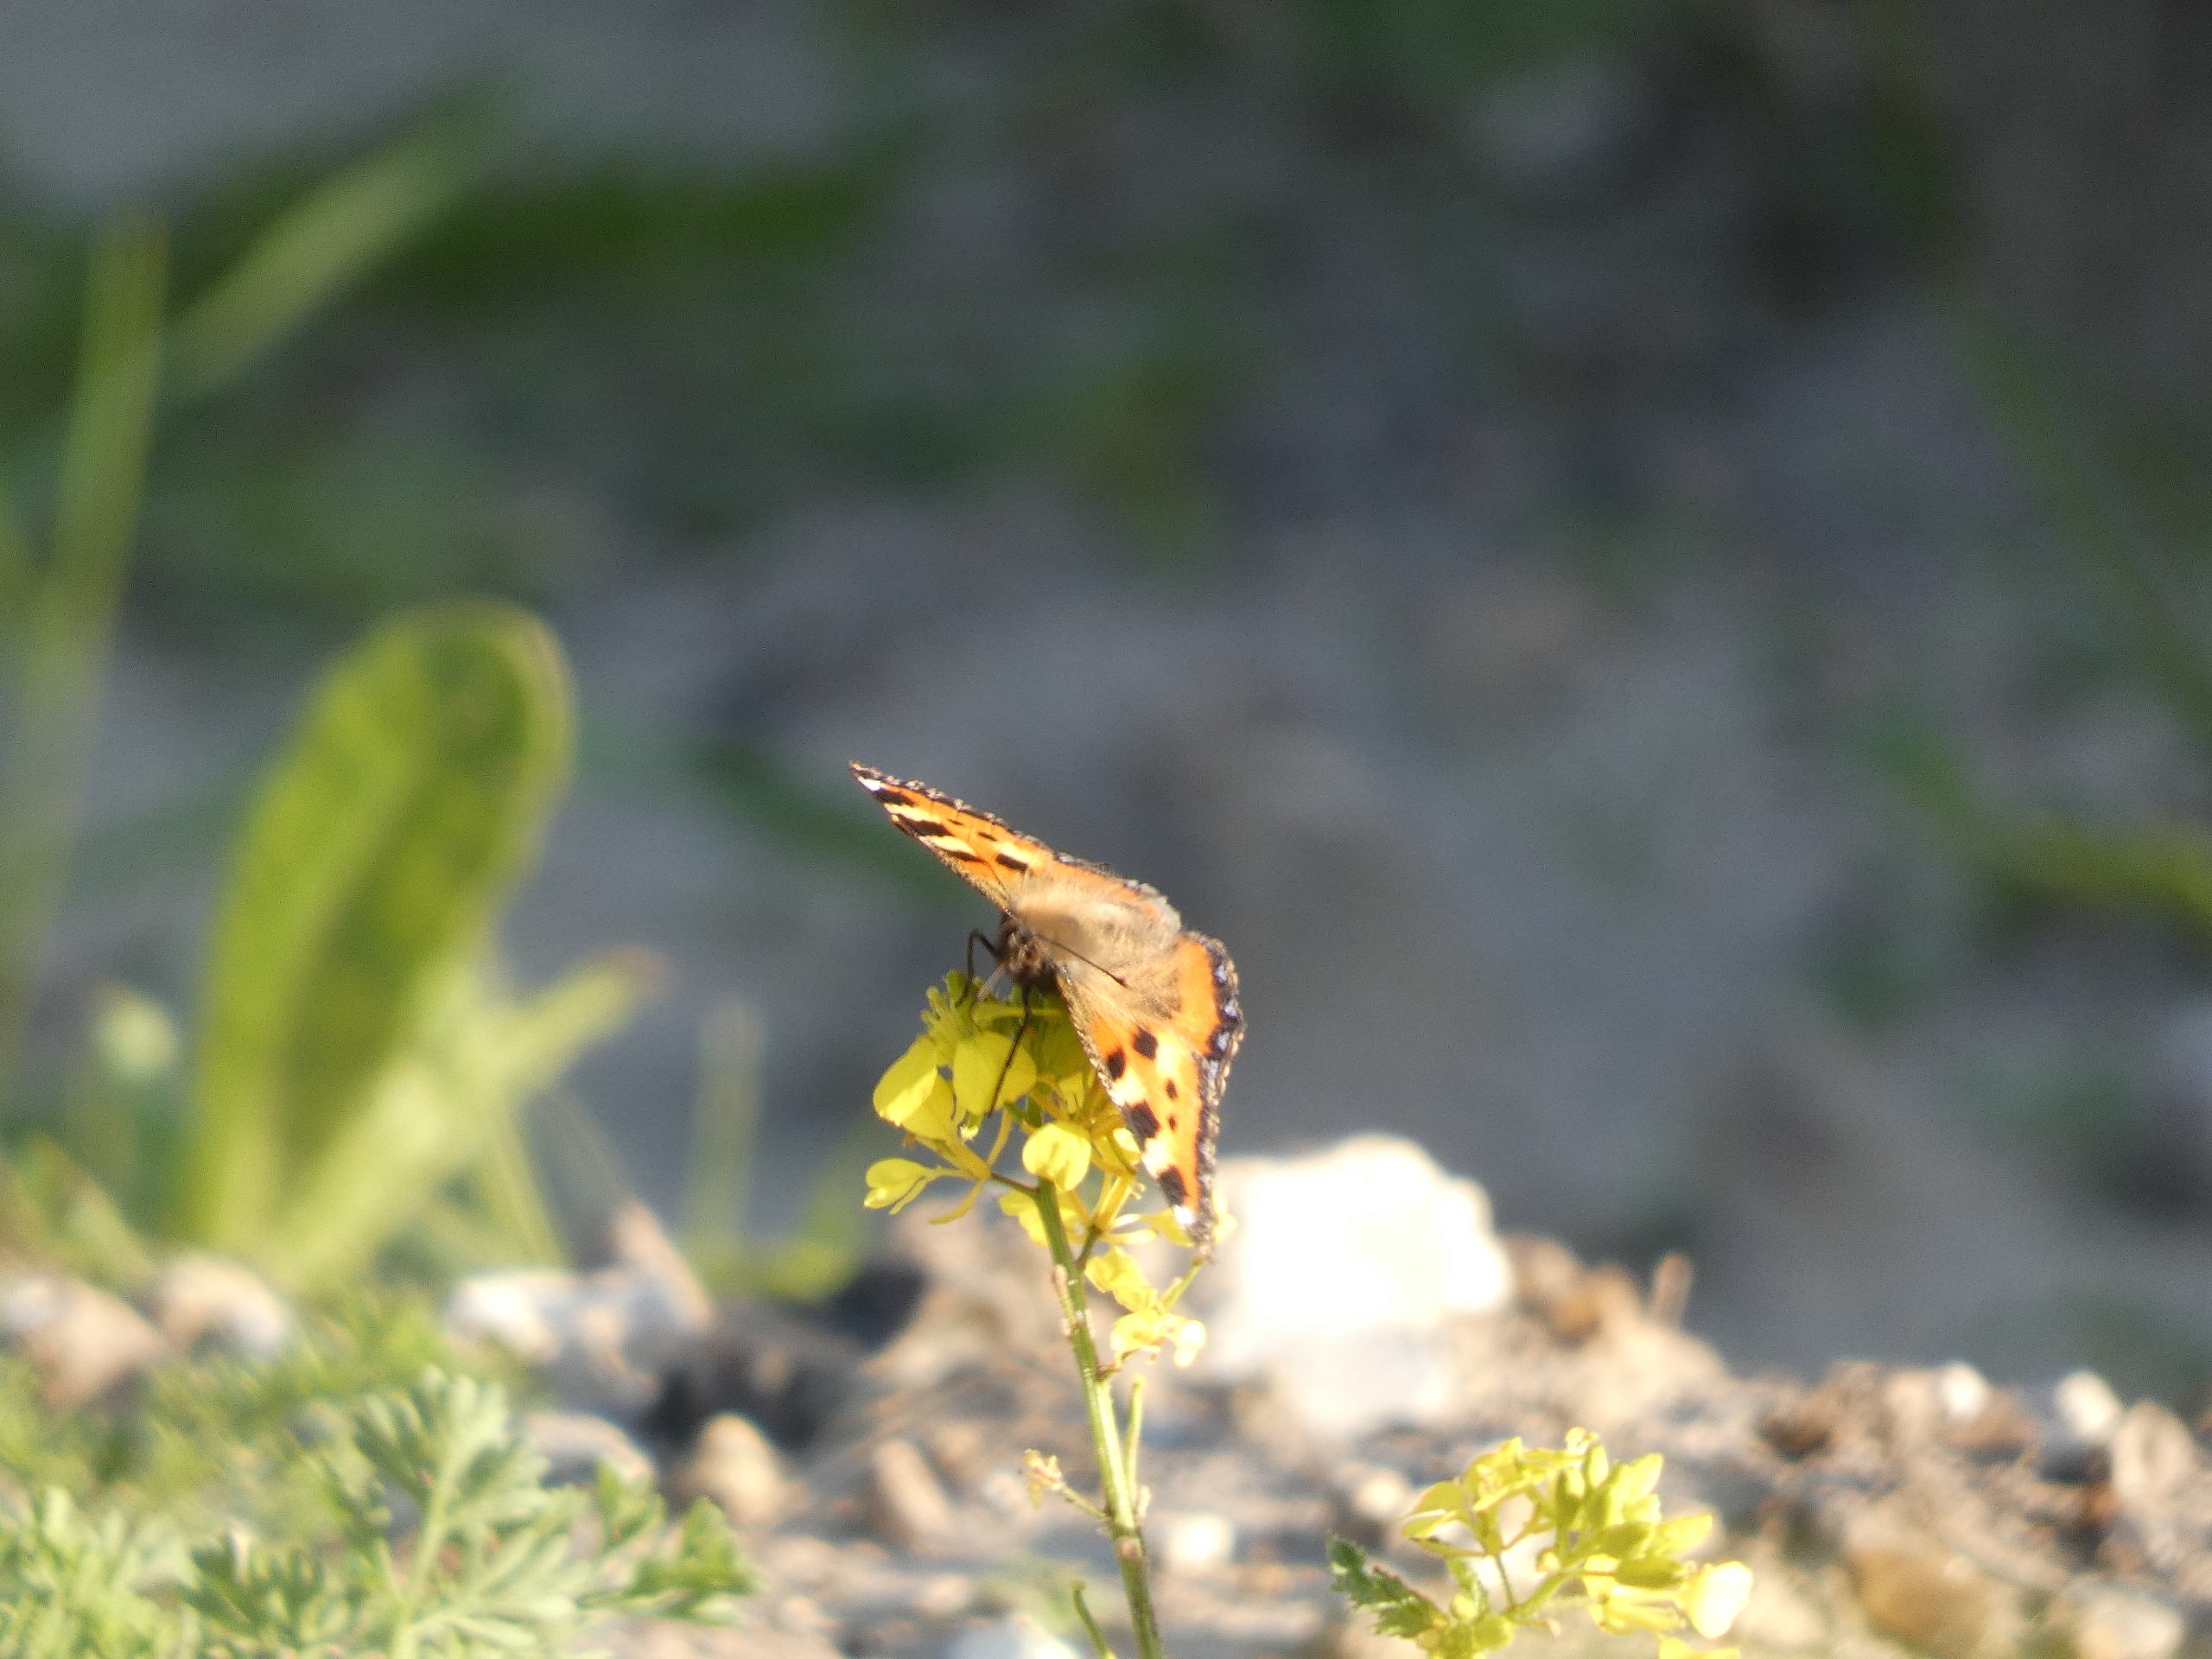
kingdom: Animalia
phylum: Arthropoda
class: Insecta
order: Lepidoptera
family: Nymphalidae
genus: Aglais
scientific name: Aglais urticae
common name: Nældens takvinge
